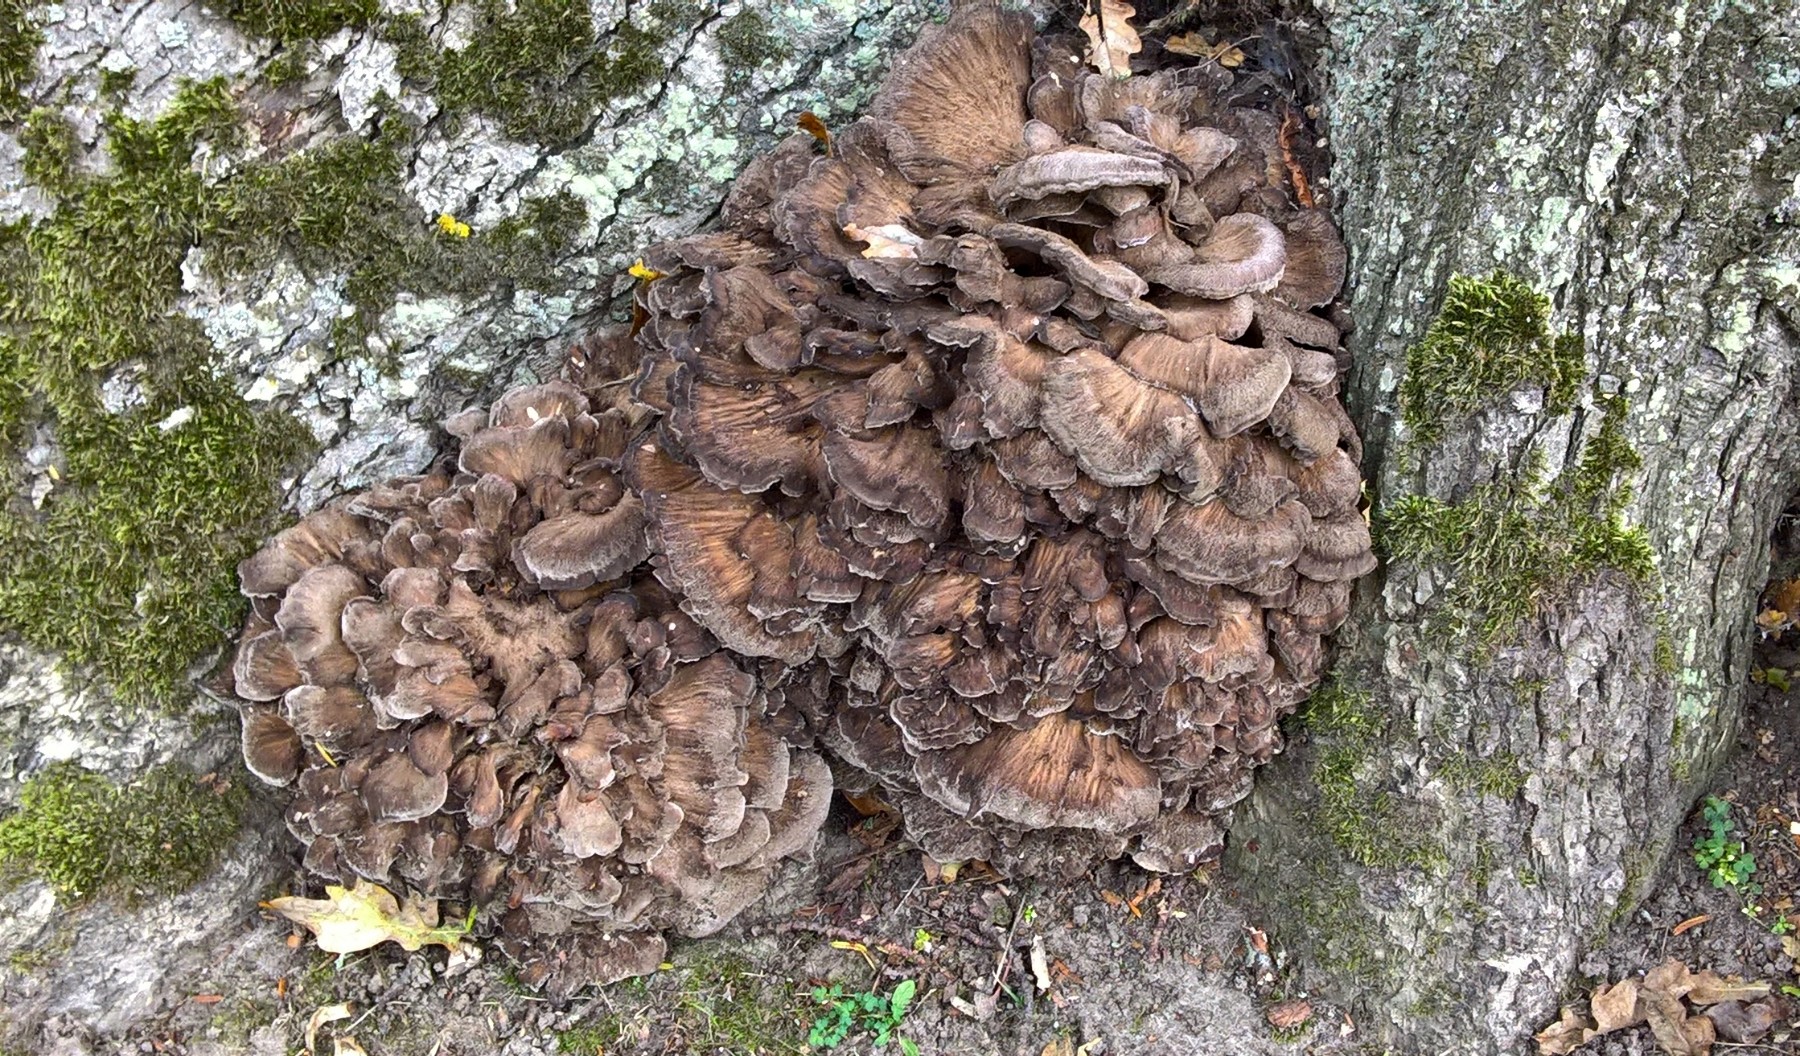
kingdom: Fungi
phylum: Basidiomycota
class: Agaricomycetes
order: Polyporales
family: Grifolaceae
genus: Grifola
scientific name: Grifola frondosa
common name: tueporesvamp
